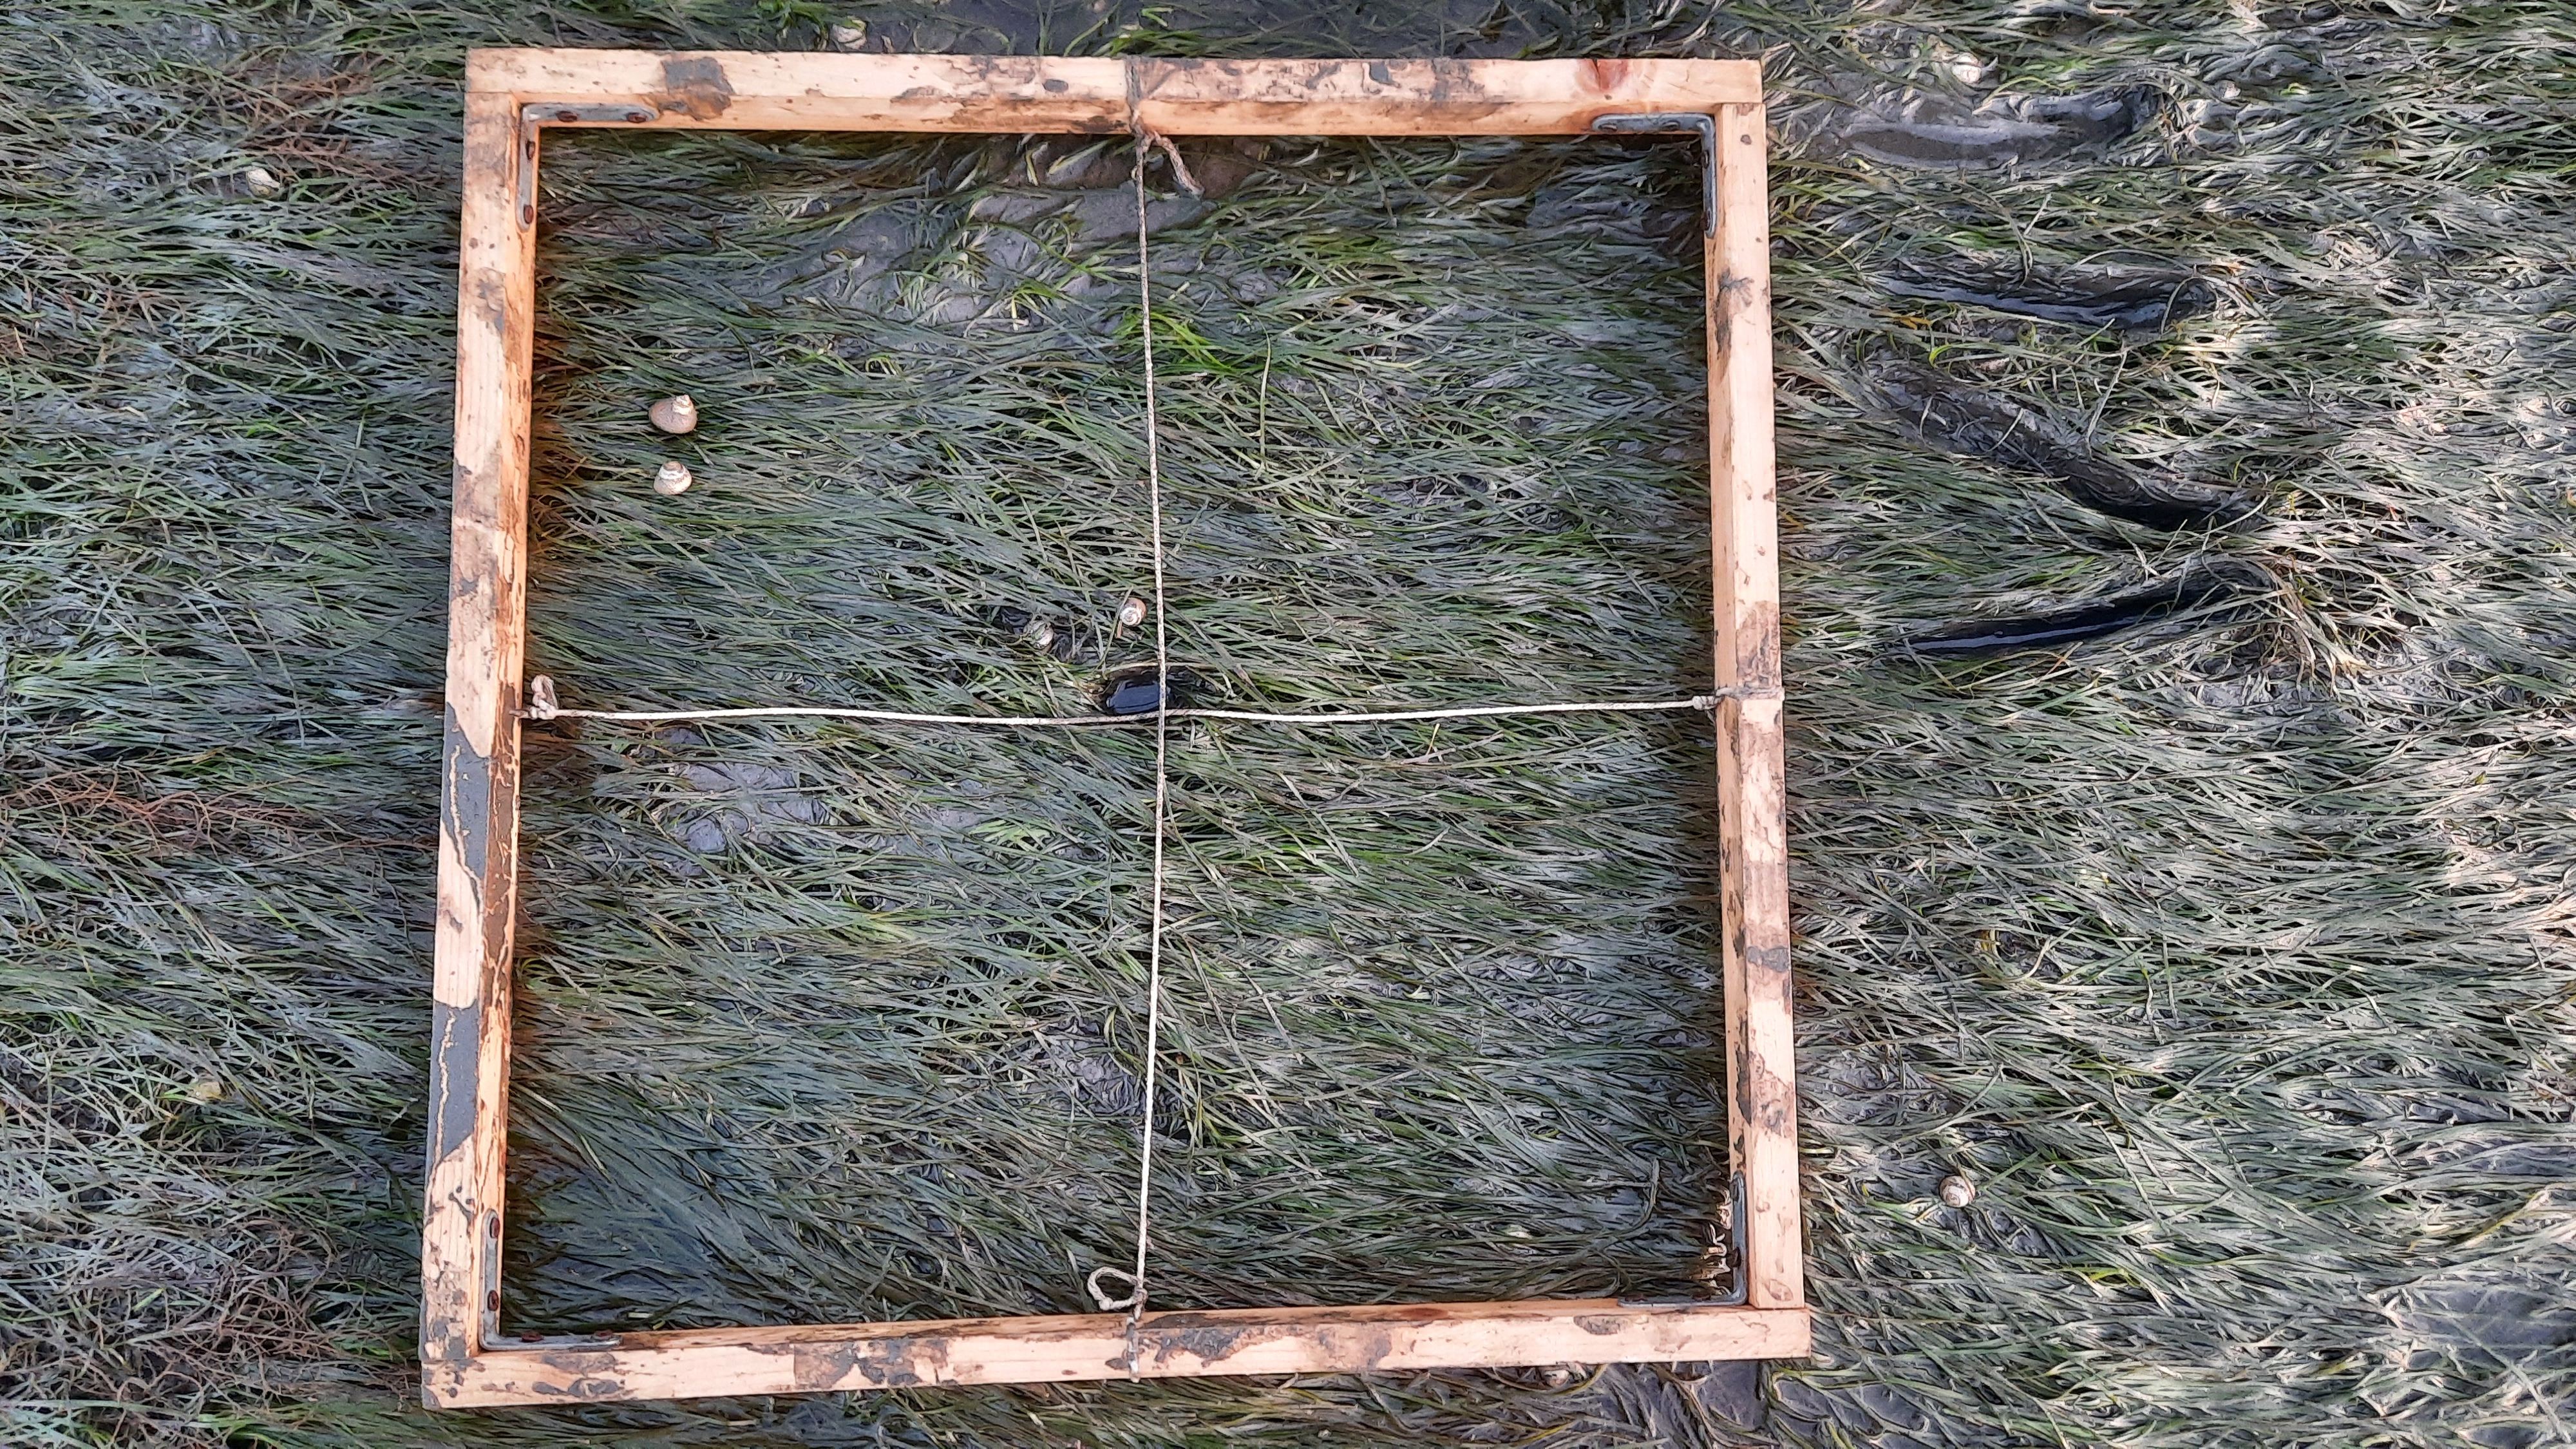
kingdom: Plantae
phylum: Tracheophyta
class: Liliopsida
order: Alismatales
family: Zosteraceae
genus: Zostera
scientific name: Zostera noltii
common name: Dwarf eelgrass
